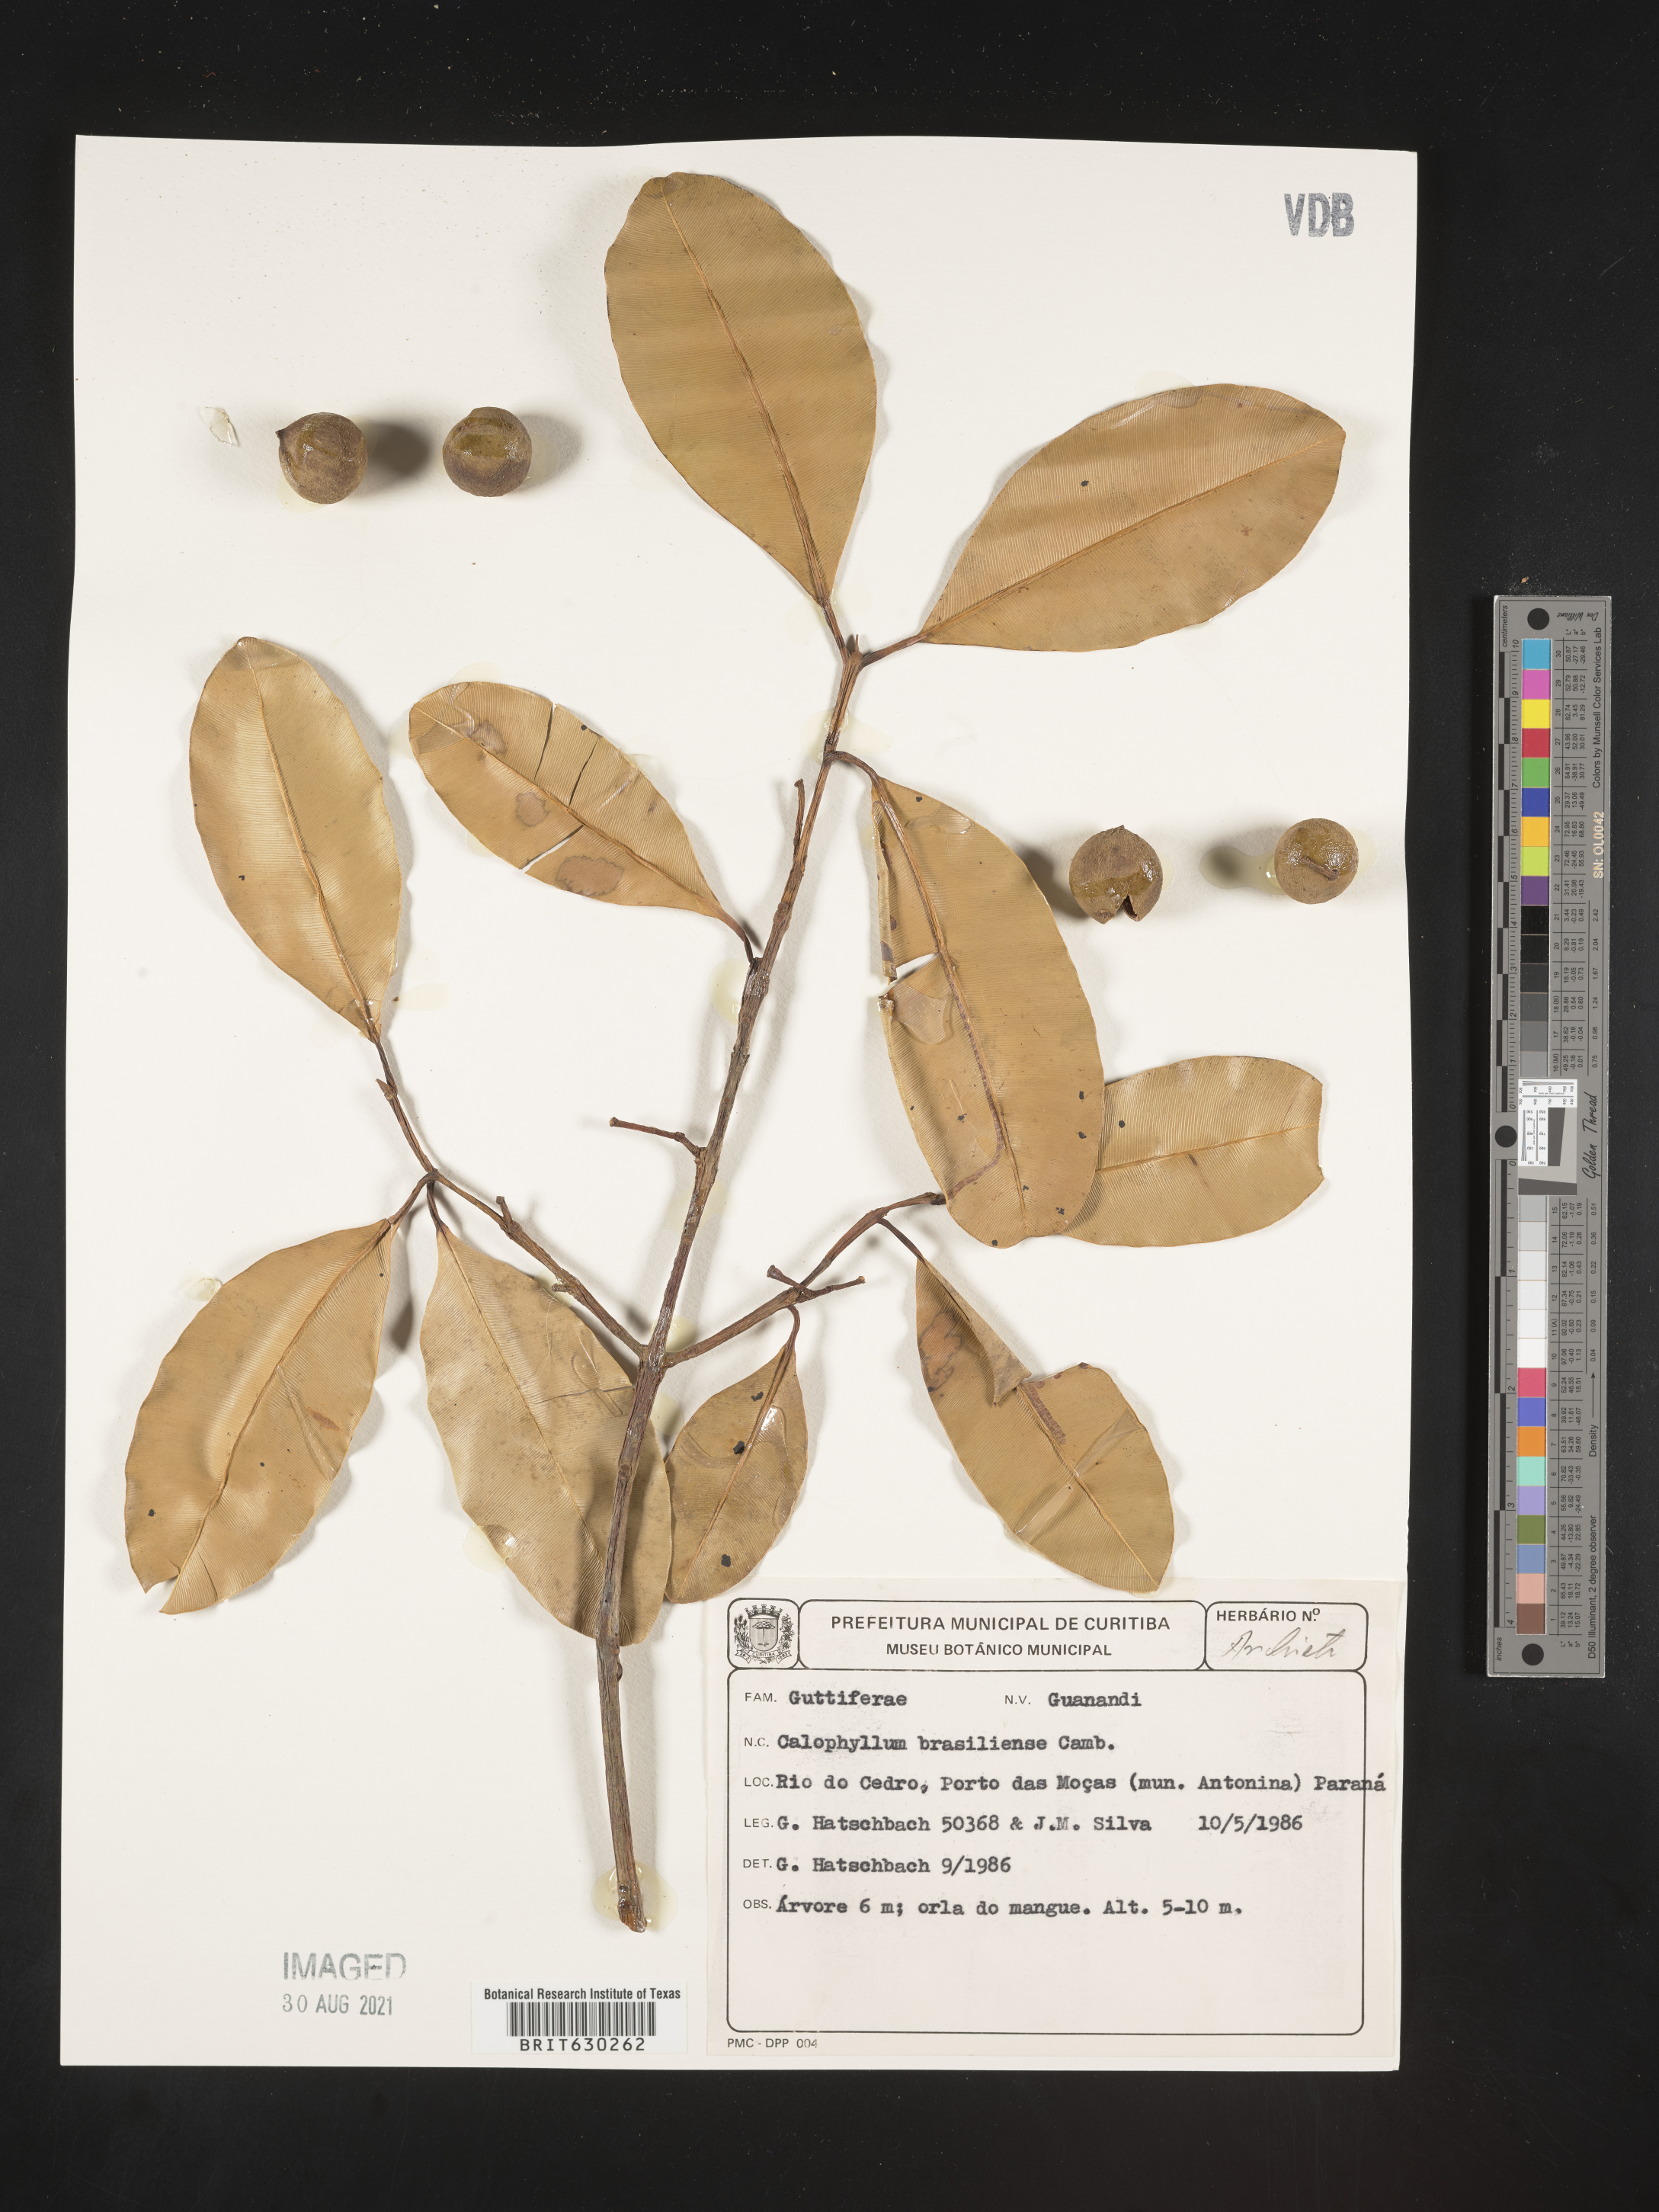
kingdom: Plantae
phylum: Tracheophyta
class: Magnoliopsida
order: Malpighiales
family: Calophyllaceae
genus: Calophyllum
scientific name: Calophyllum brasiliense
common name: Santa maria
